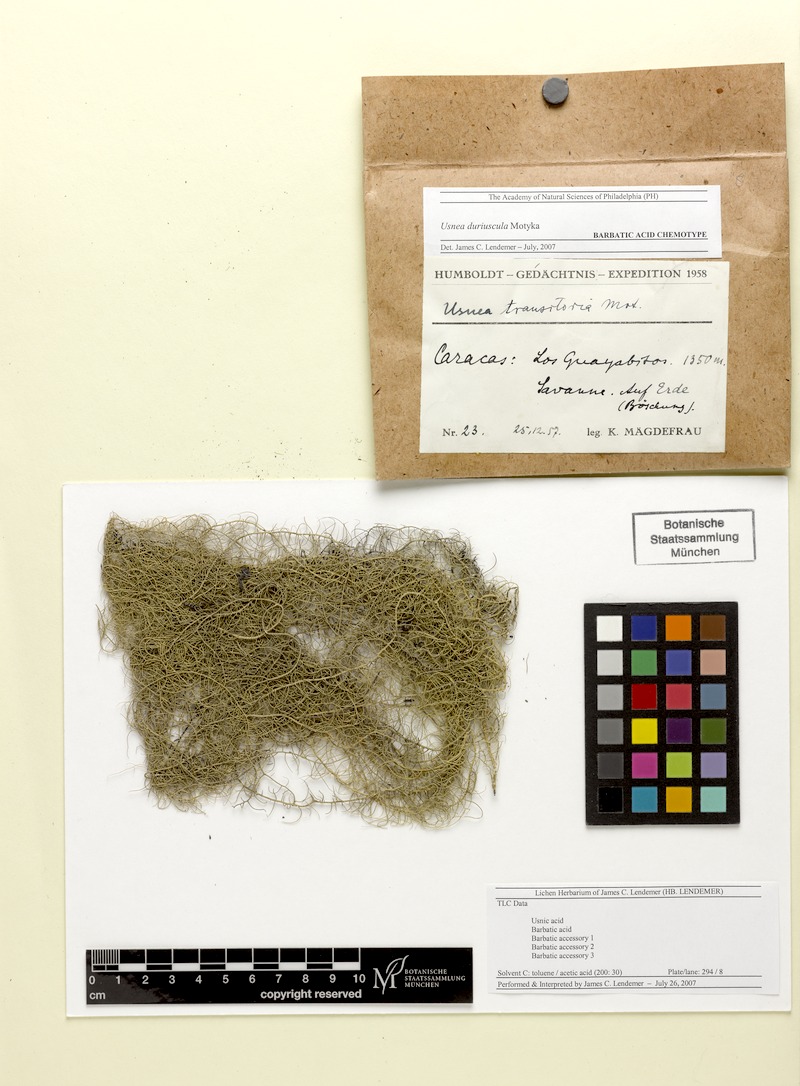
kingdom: Fungi
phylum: Ascomycota
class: Lecanoromycetes
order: Lecanorales
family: Parmeliaceae
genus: Usnea
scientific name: Usnea duriuscula
